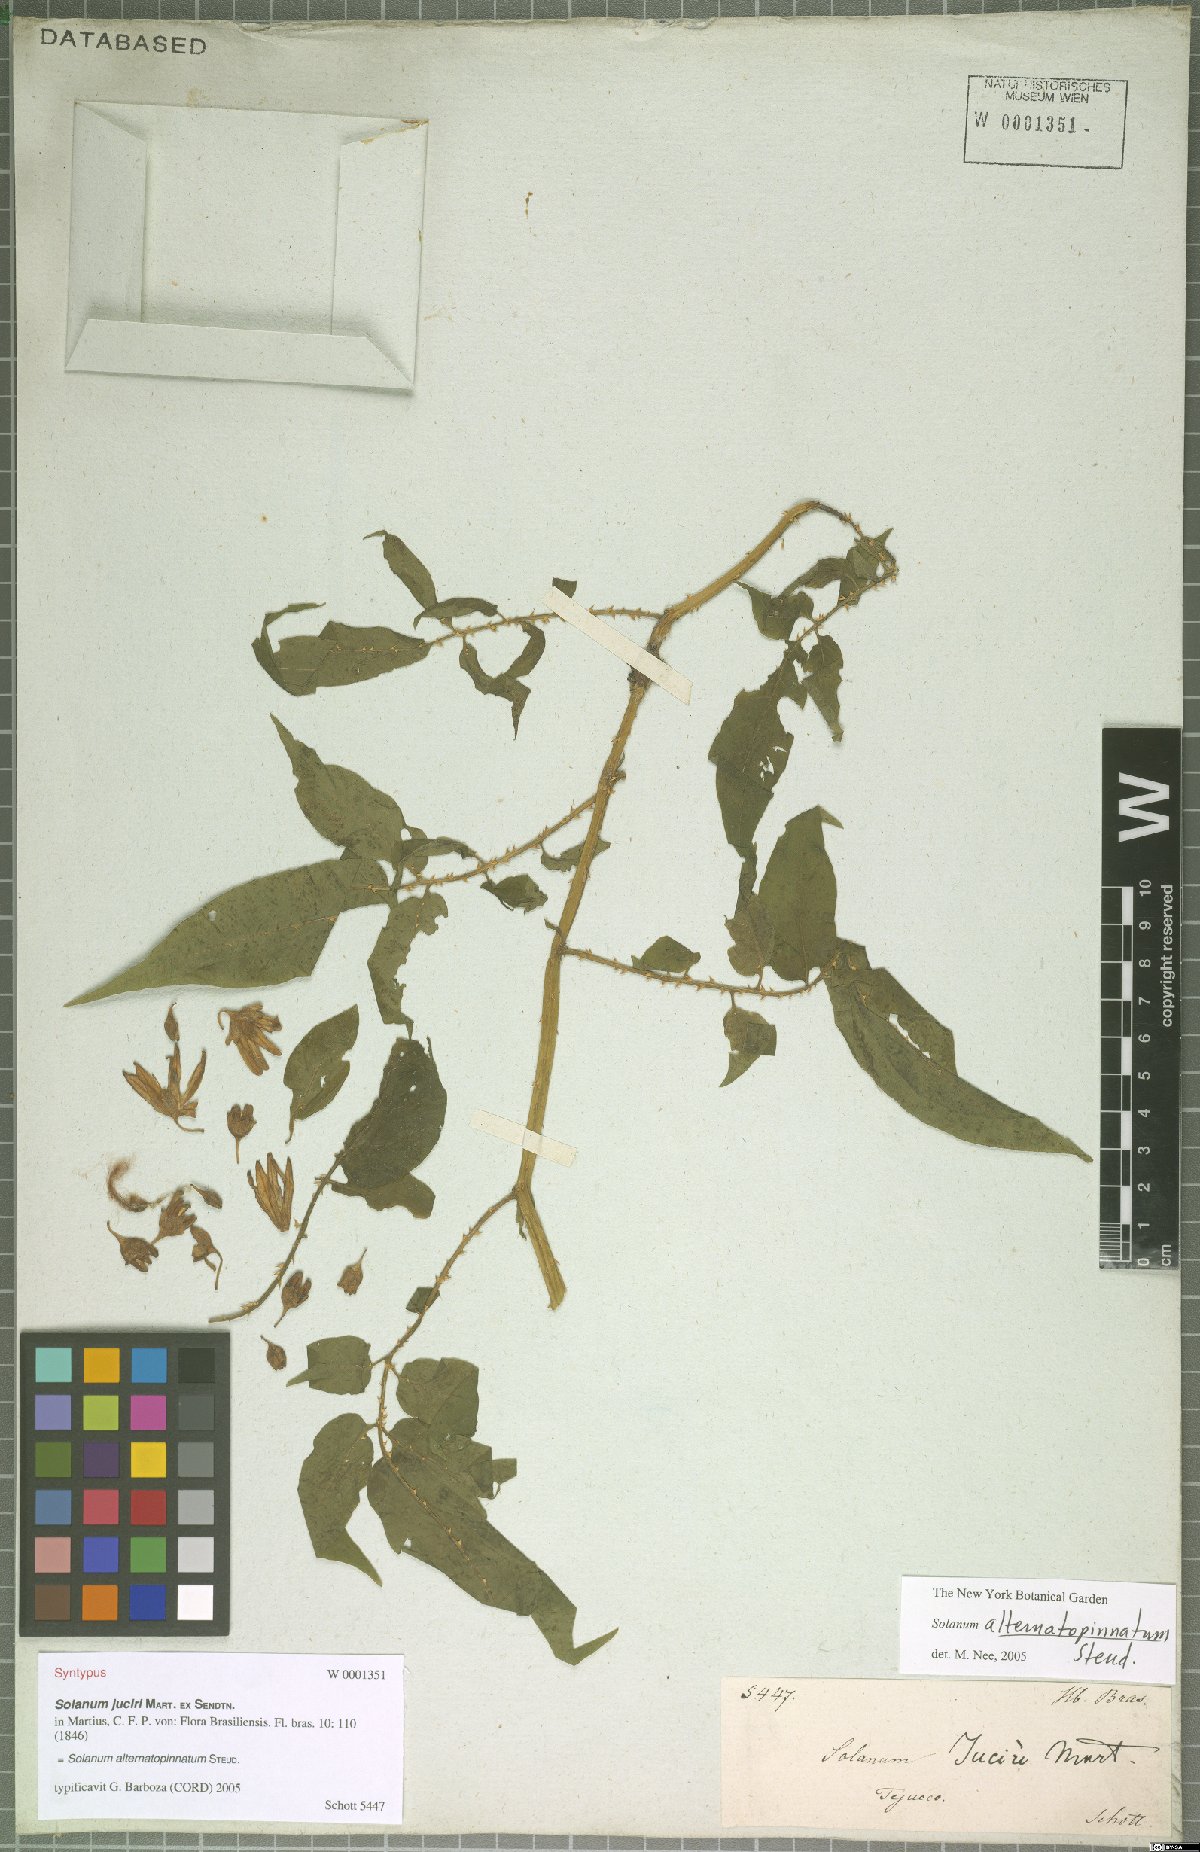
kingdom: Plantae
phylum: Tracheophyta
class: Magnoliopsida
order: Solanales
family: Solanaceae
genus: Solanum
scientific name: Solanum alternatopinnatum
